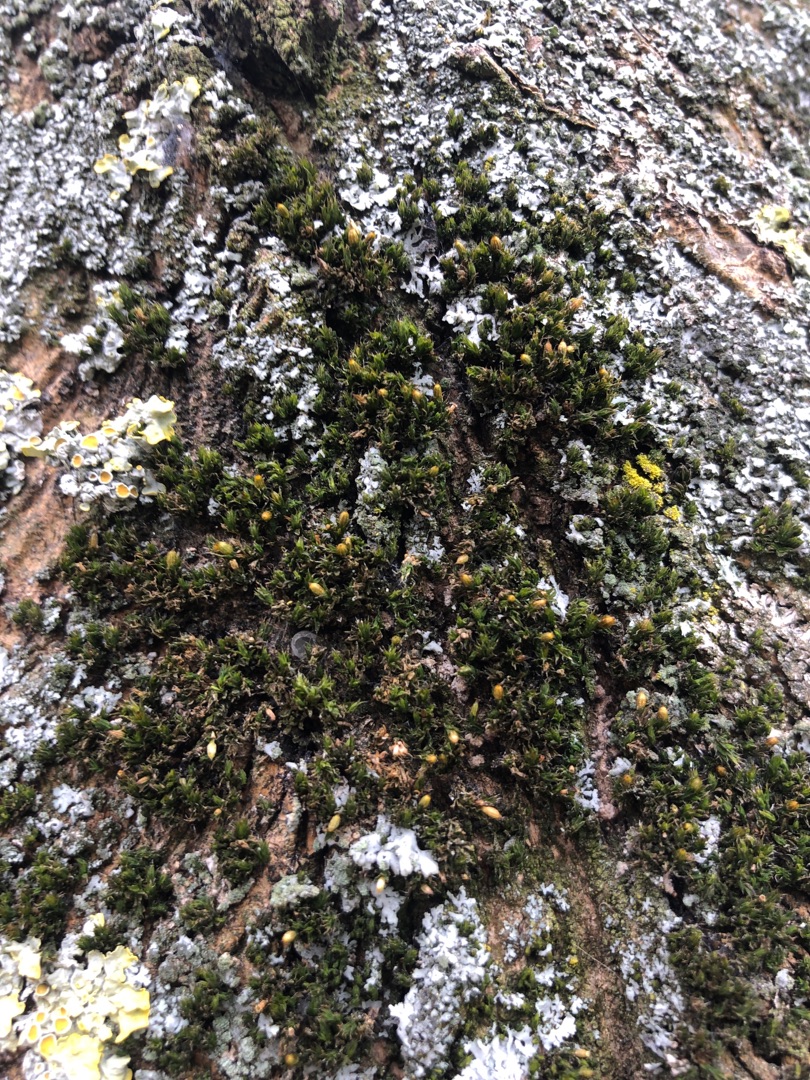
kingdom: Plantae
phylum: Bryophyta
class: Bryopsida
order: Orthotrichales
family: Orthotrichaceae
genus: Orthotrichum
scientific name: Orthotrichum diaphanum
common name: Hårspidset furehætte
